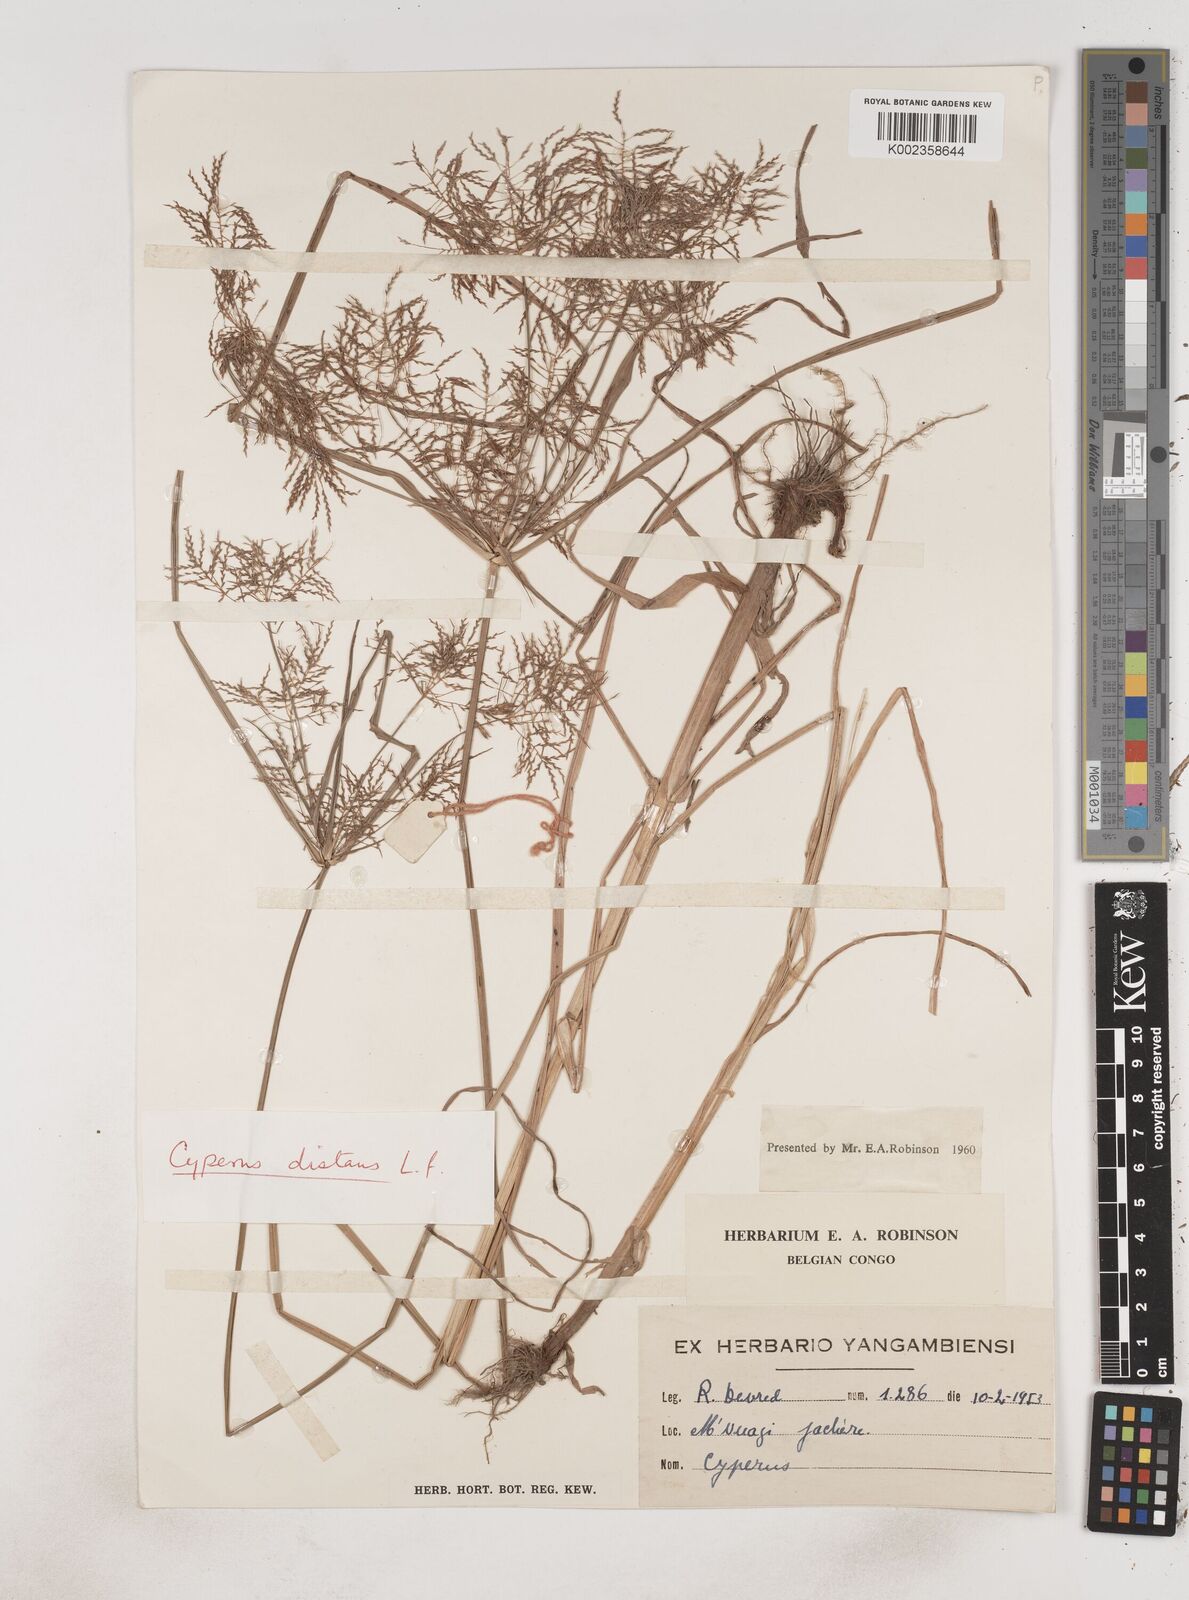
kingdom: Plantae
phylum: Tracheophyta
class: Liliopsida
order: Poales
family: Cyperaceae
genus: Cyperus
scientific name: Cyperus distans
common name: Slender cyperus
